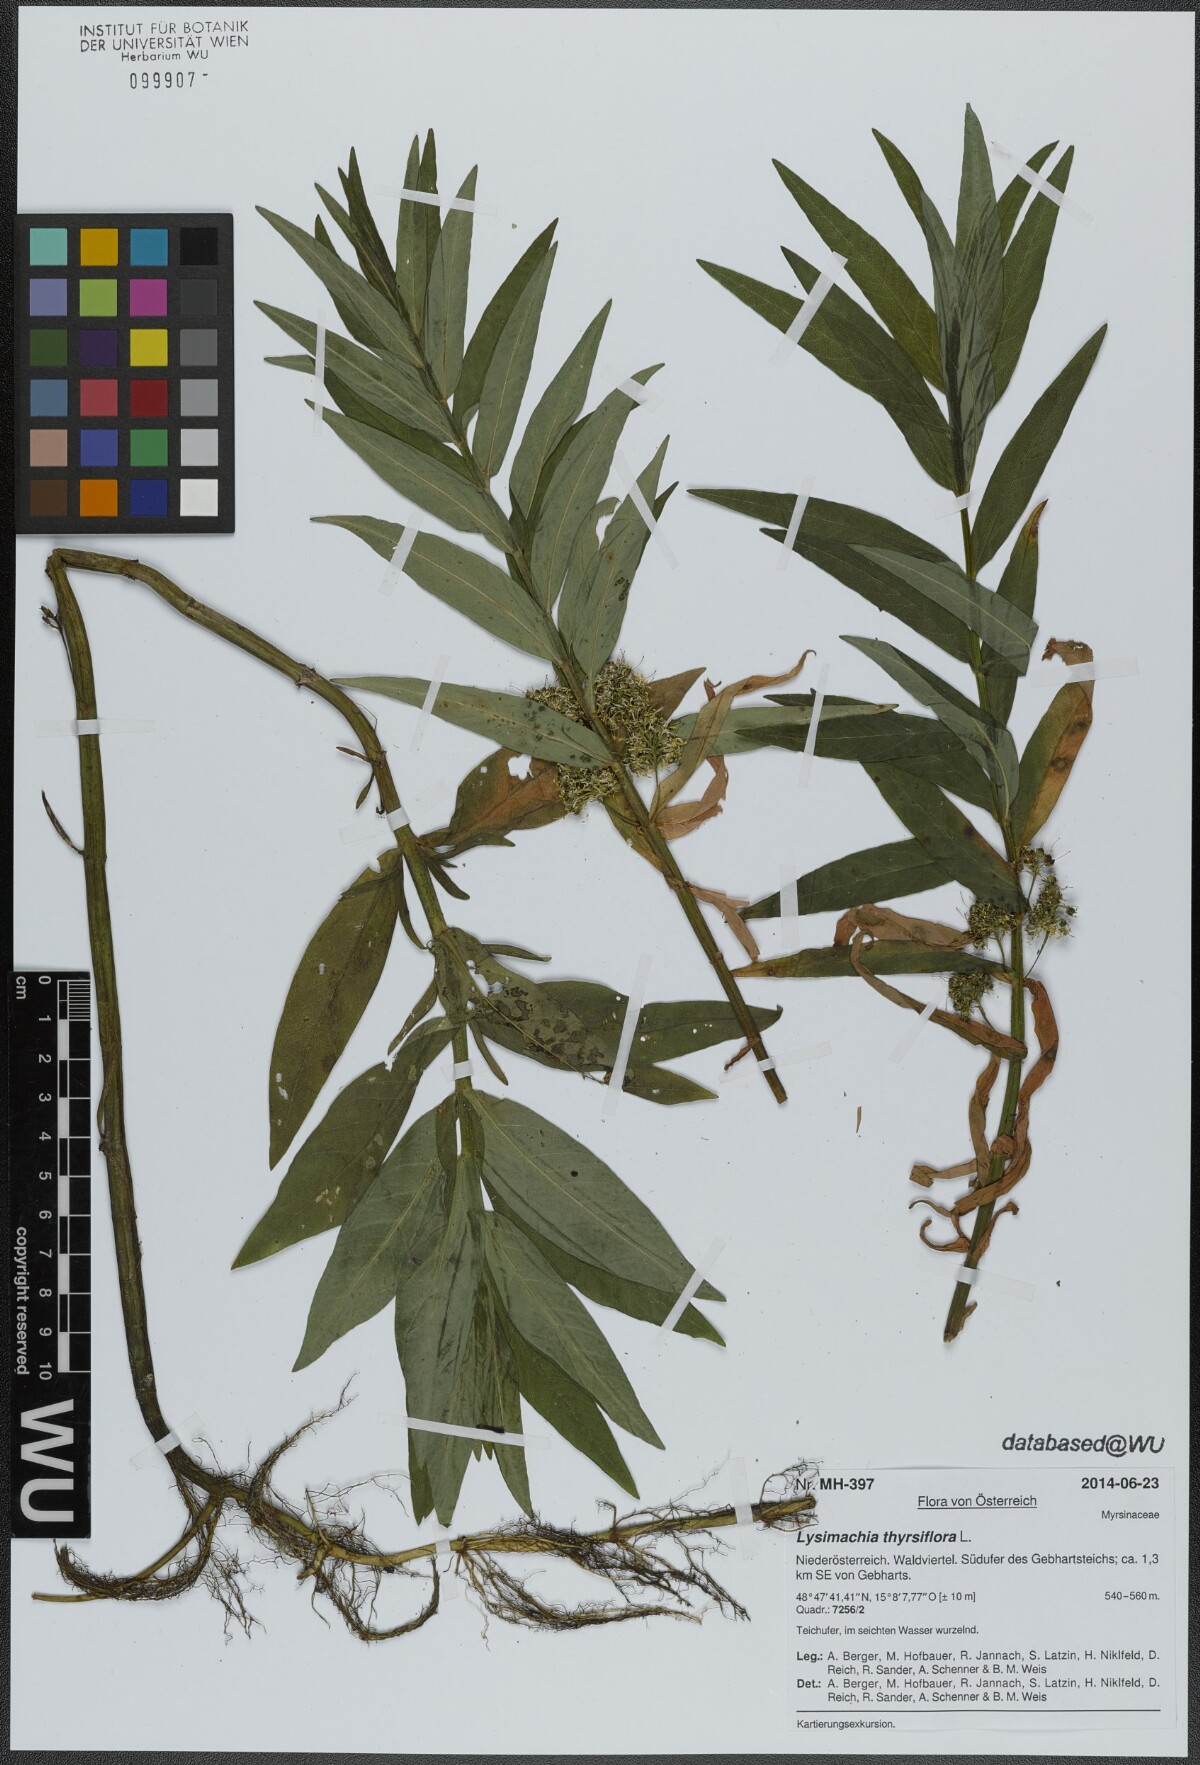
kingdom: Plantae
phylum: Tracheophyta
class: Magnoliopsida
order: Ericales
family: Primulaceae
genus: Lysimachia
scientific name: Lysimachia thyrsiflora
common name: Tufted loosestrife
